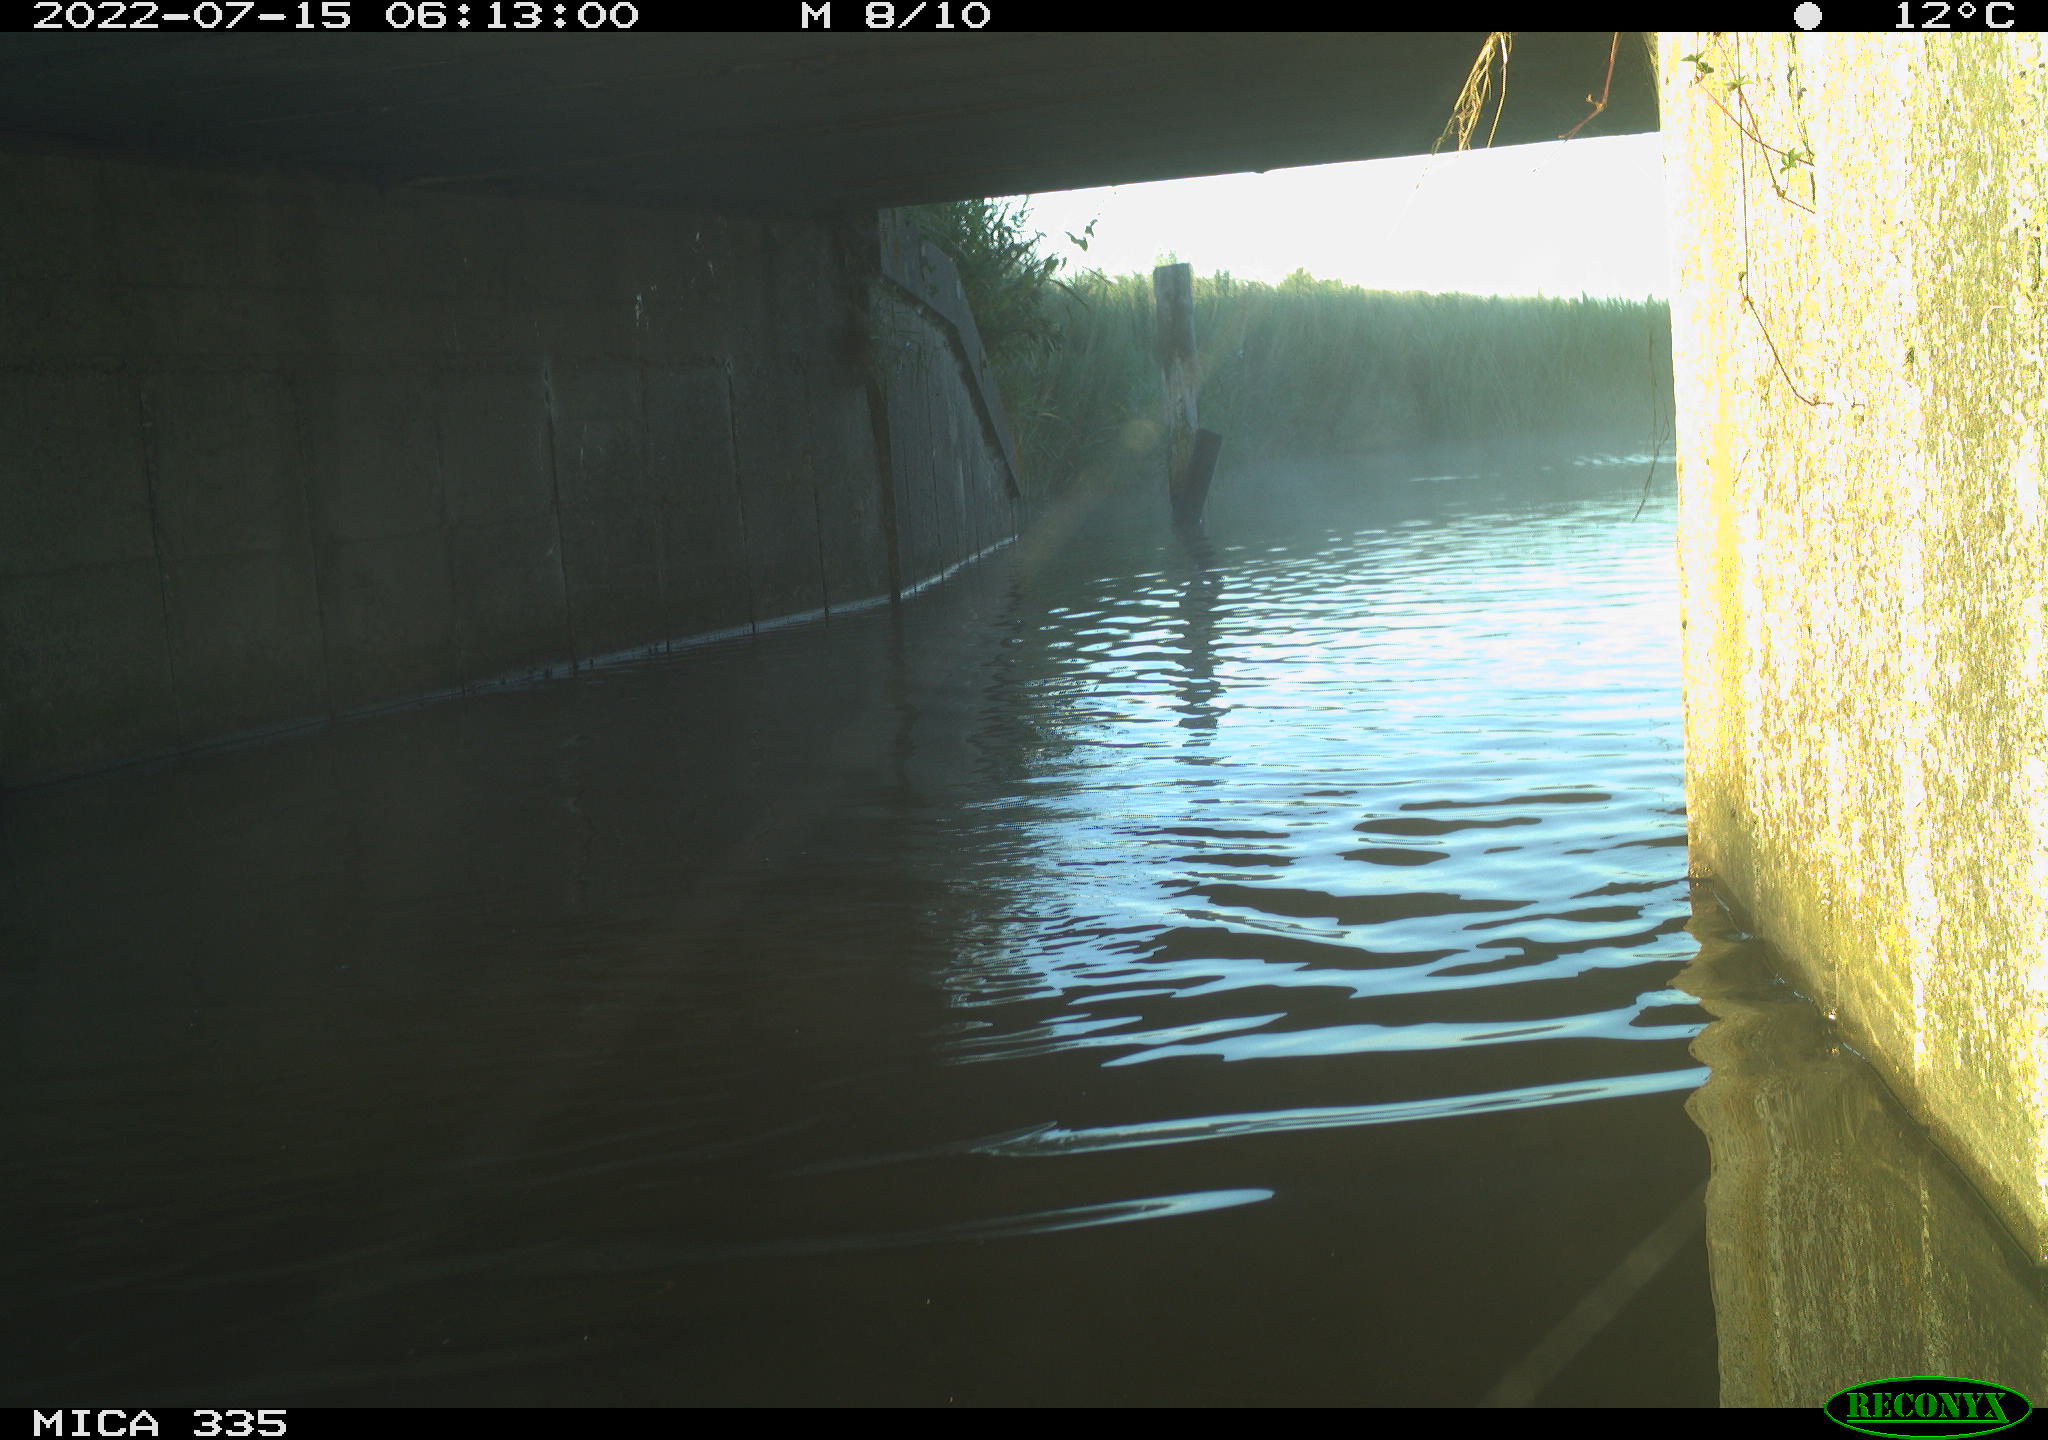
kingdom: Animalia
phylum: Chordata
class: Aves
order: Anseriformes
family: Anatidae
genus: Anas
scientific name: Anas platyrhynchos
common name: Mallard
